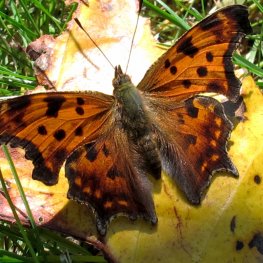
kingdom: Animalia
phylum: Arthropoda
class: Insecta
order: Lepidoptera
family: Nymphalidae
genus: Polygonia
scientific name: Polygonia comma
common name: Eastern Comma
